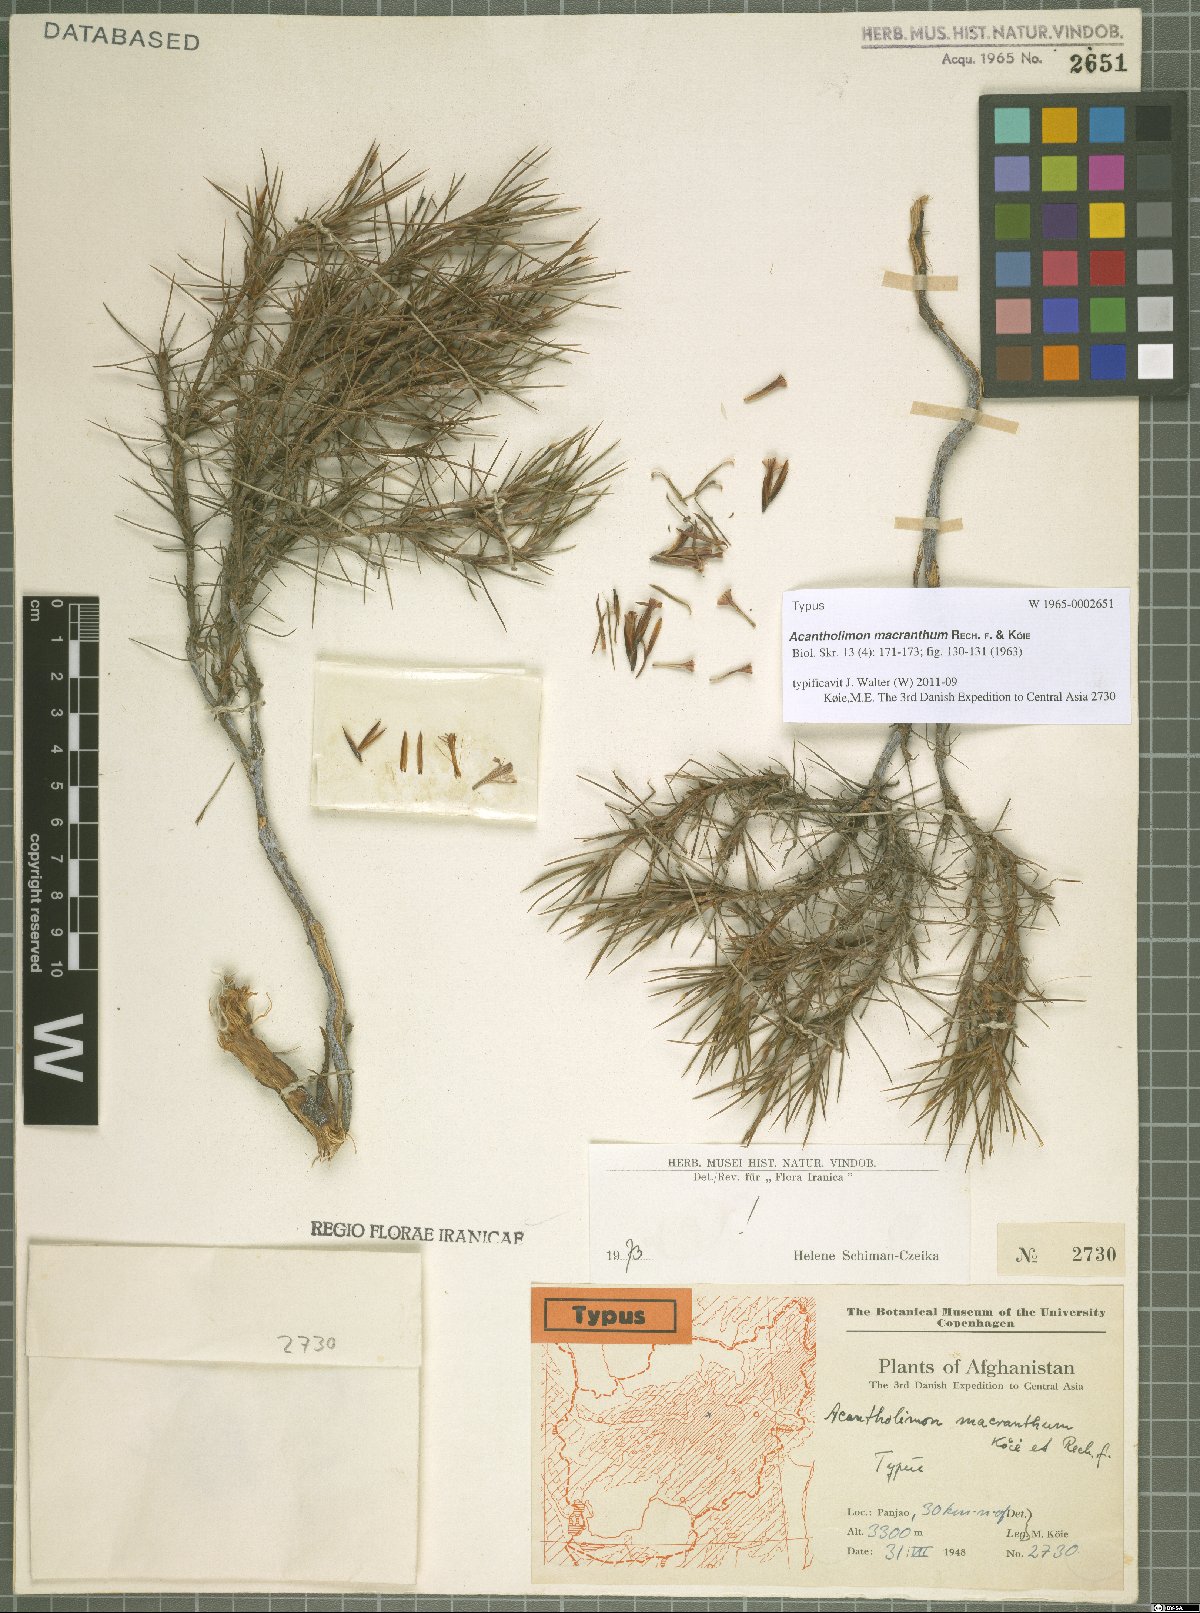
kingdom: Plantae
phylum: Tracheophyta
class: Magnoliopsida
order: Caryophyllales
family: Plumbaginaceae
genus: Acantholimon
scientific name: Acantholimon macranthum
